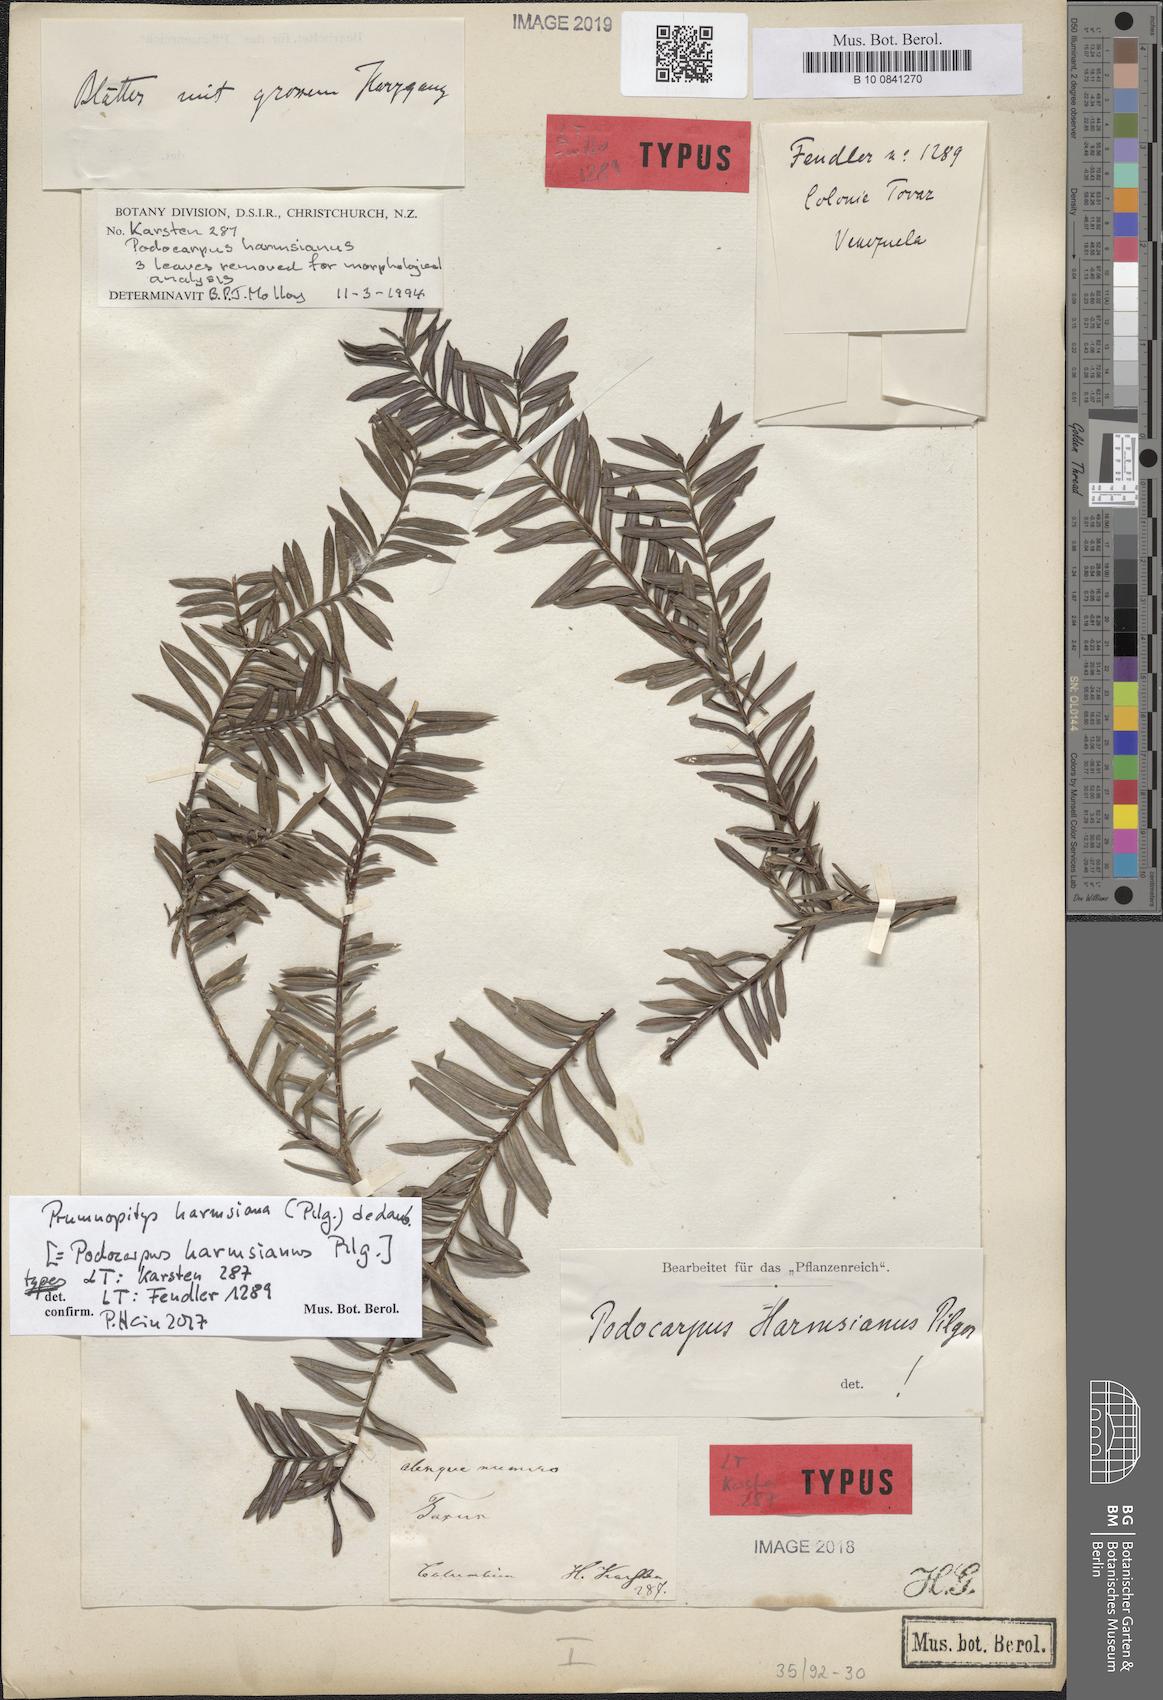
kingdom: Plantae
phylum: Tracheophyta
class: Pinopsida
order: Pinales
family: Podocarpaceae
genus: Prumnopitys
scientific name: Prumnopitys harmsiana
